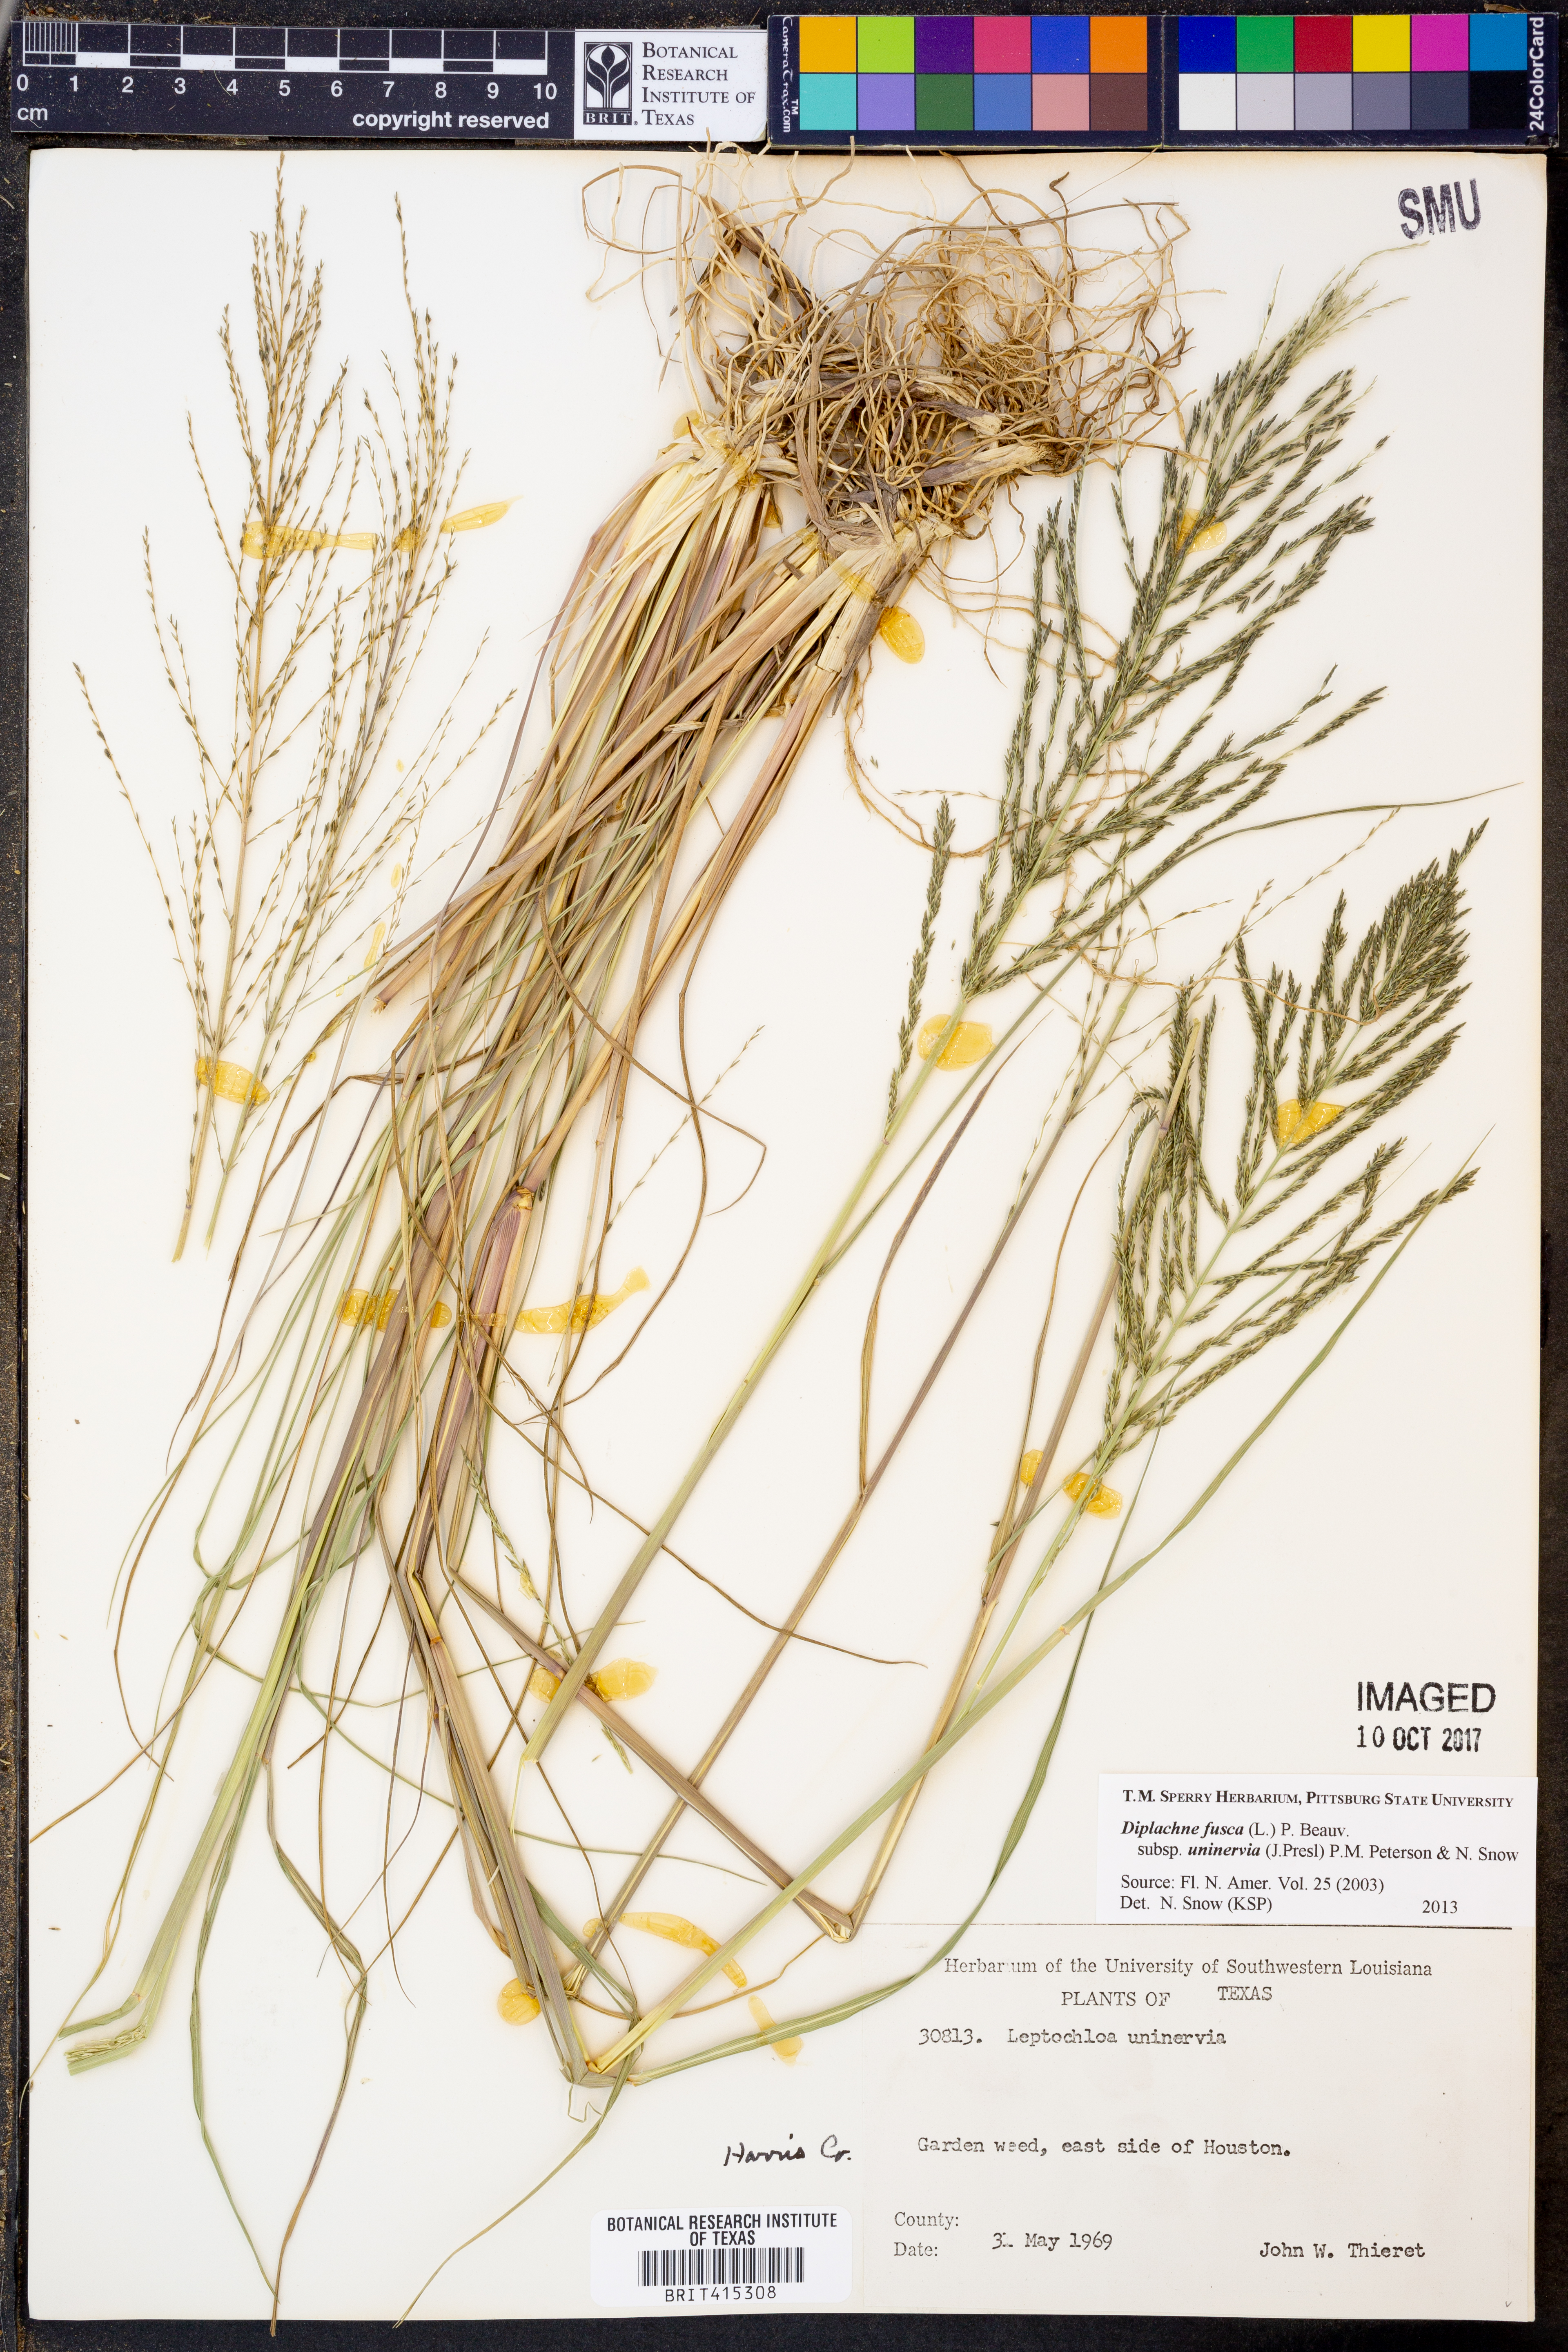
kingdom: Plantae
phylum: Tracheophyta
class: Liliopsida
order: Poales
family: Poaceae
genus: Diplachne
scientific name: Diplachne fusca
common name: Brown beetle grass
